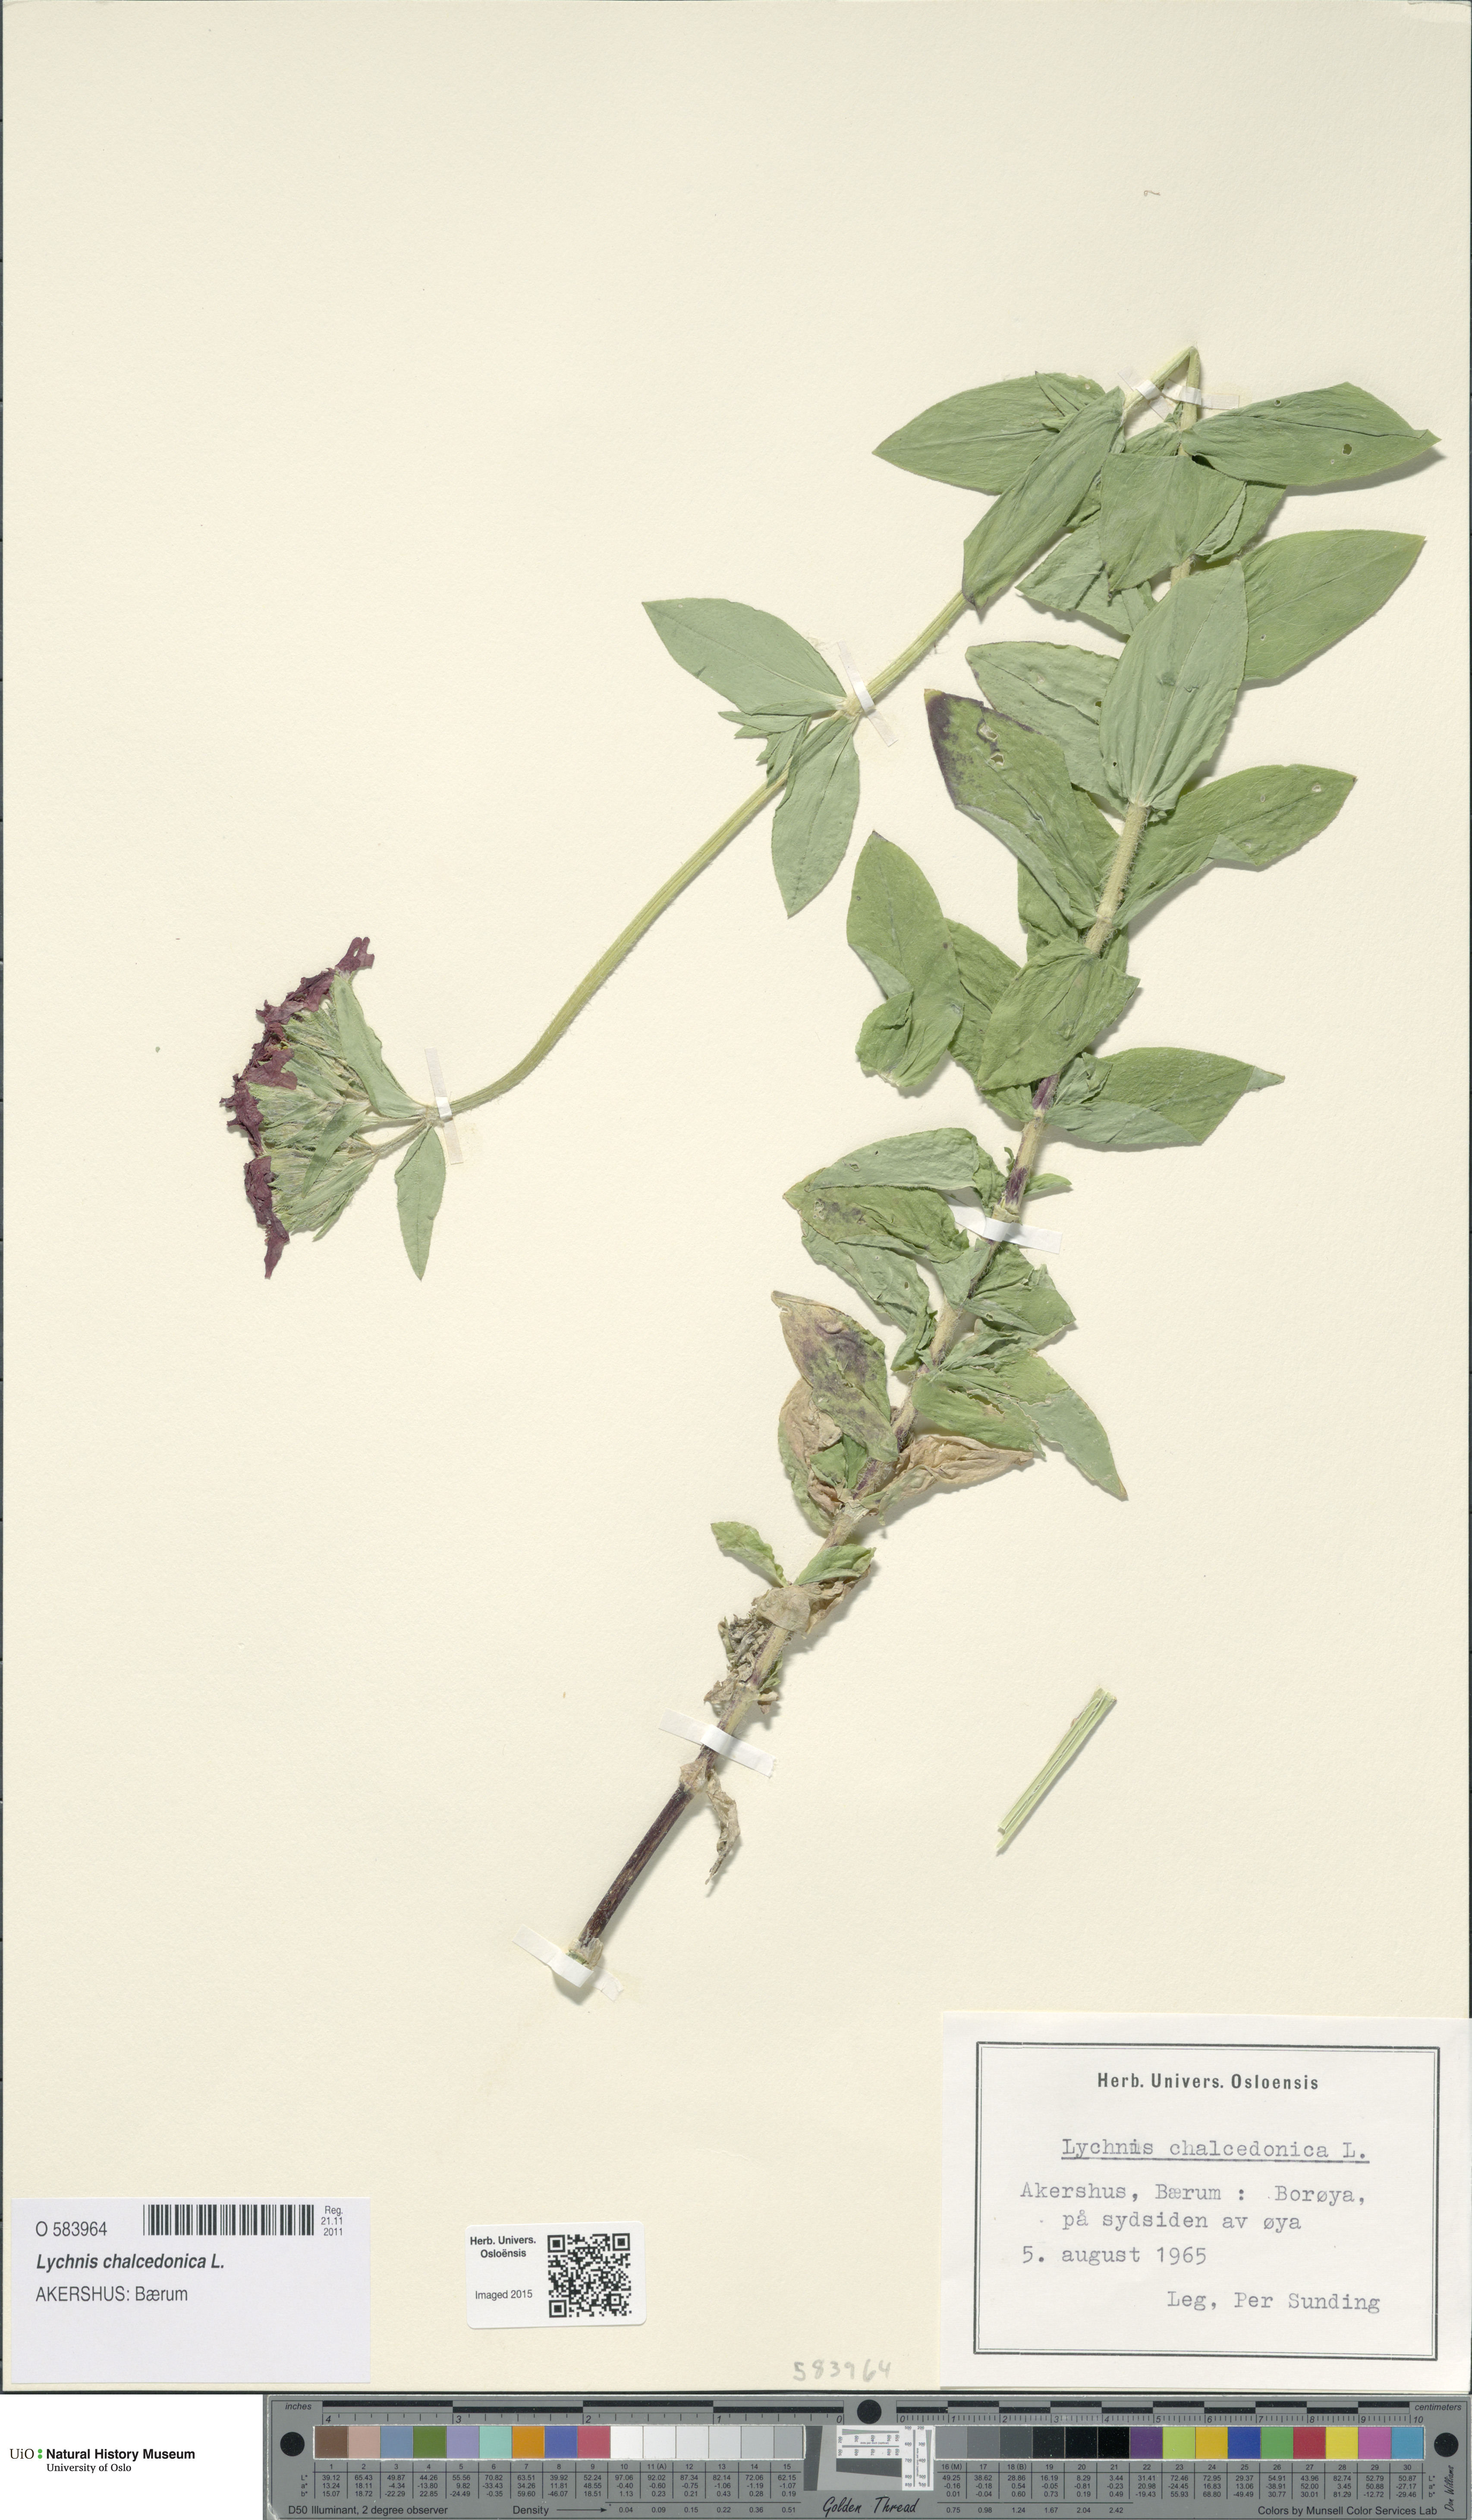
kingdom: Plantae
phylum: Tracheophyta
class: Magnoliopsida
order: Caryophyllales
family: Caryophyllaceae
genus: Silene
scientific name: Silene chalcedonica
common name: Maltese-cross
